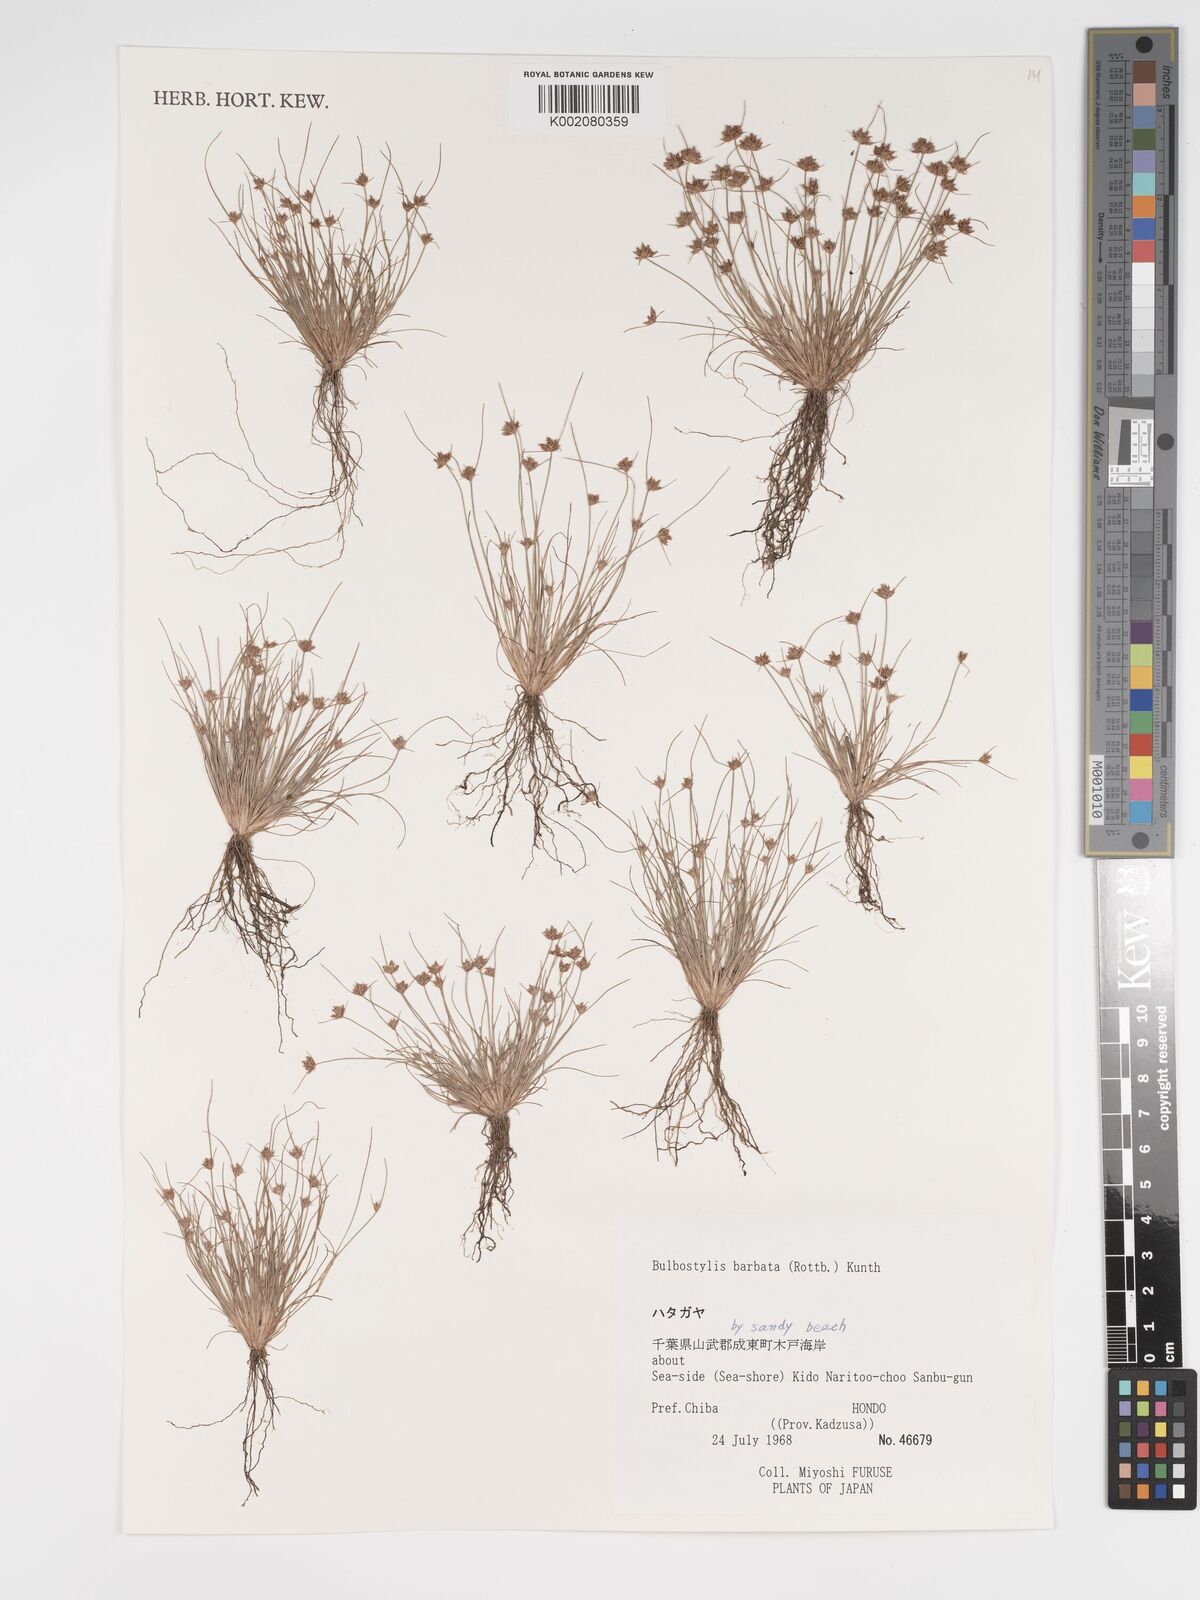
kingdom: Plantae
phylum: Tracheophyta
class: Liliopsida
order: Poales
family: Cyperaceae
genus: Bulbostylis
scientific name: Bulbostylis barbata
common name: Watergrass
